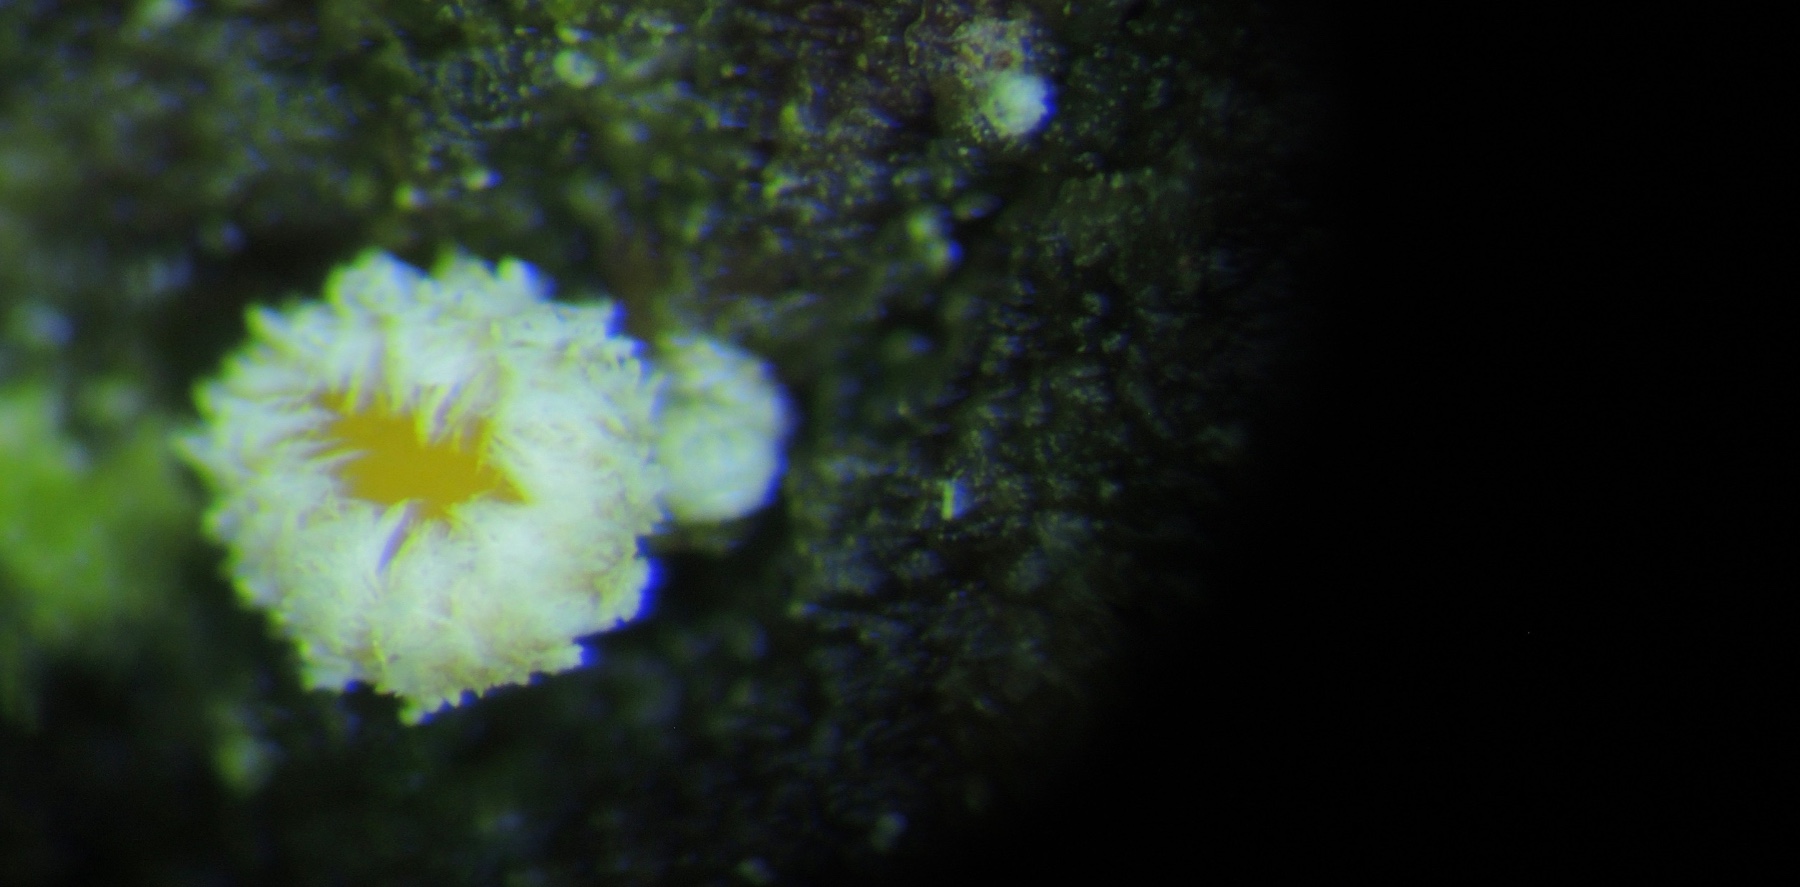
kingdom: Fungi
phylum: Ascomycota
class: Leotiomycetes
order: Helotiales
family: Lachnaceae
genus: Lachnellula
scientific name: Lachnellula pseudofarinacea
